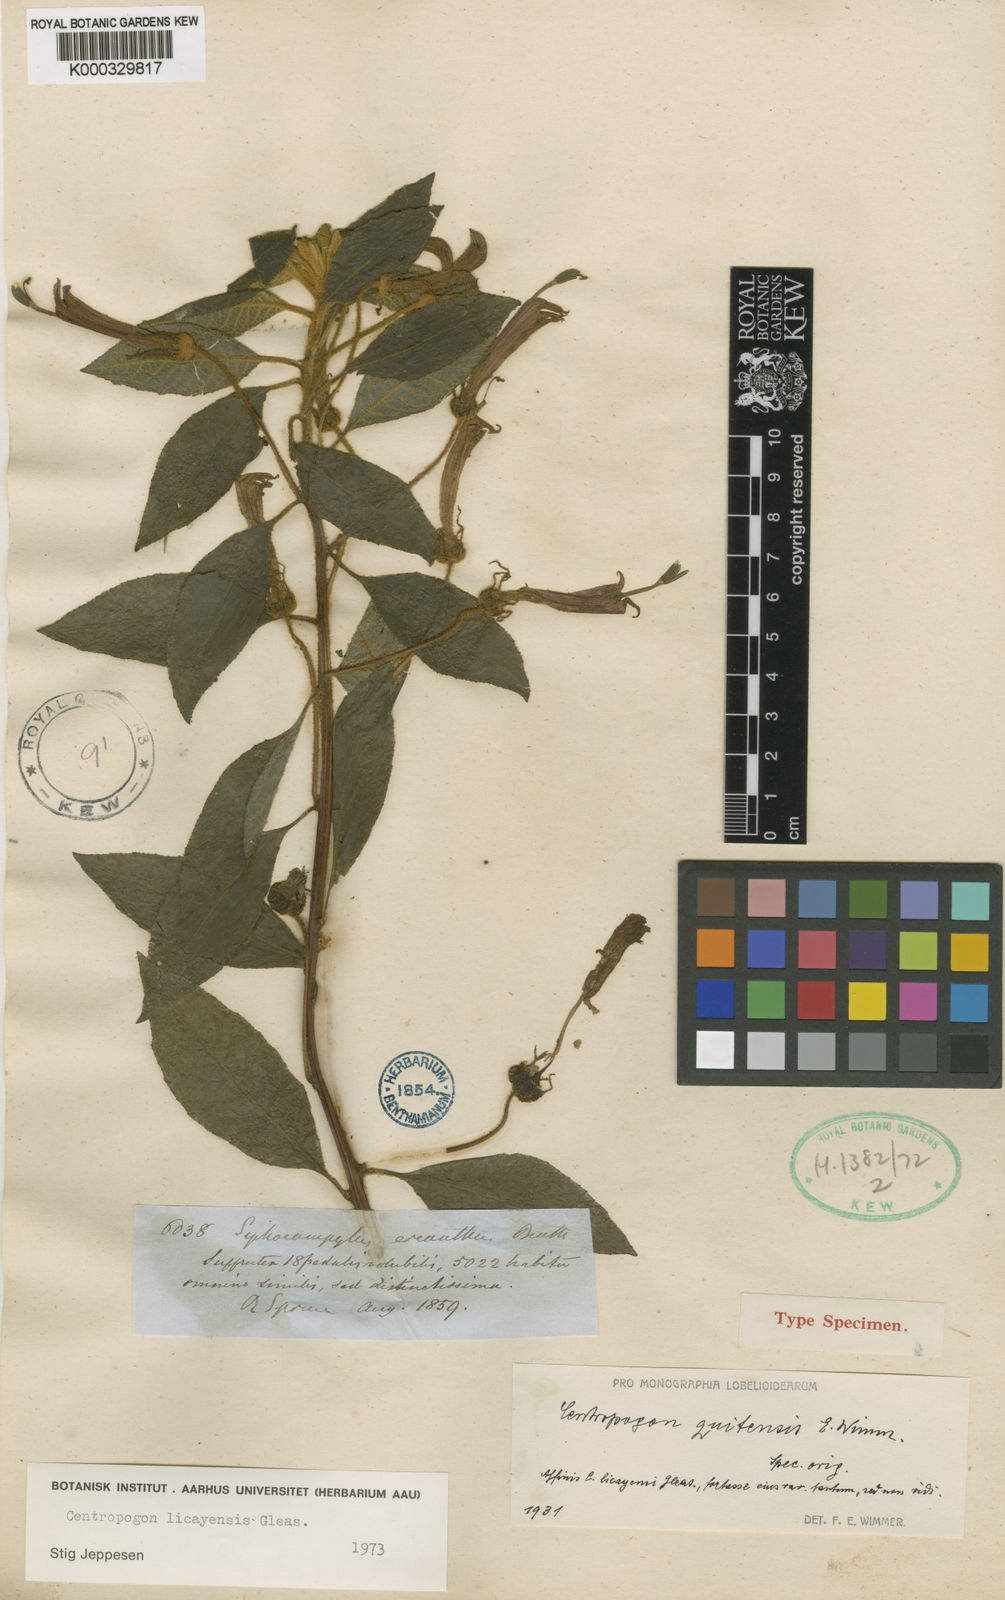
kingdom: Plantae
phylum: Tracheophyta
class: Magnoliopsida
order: Asterales
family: Campanulaceae
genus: Centropogon
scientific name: Centropogon licayensis
